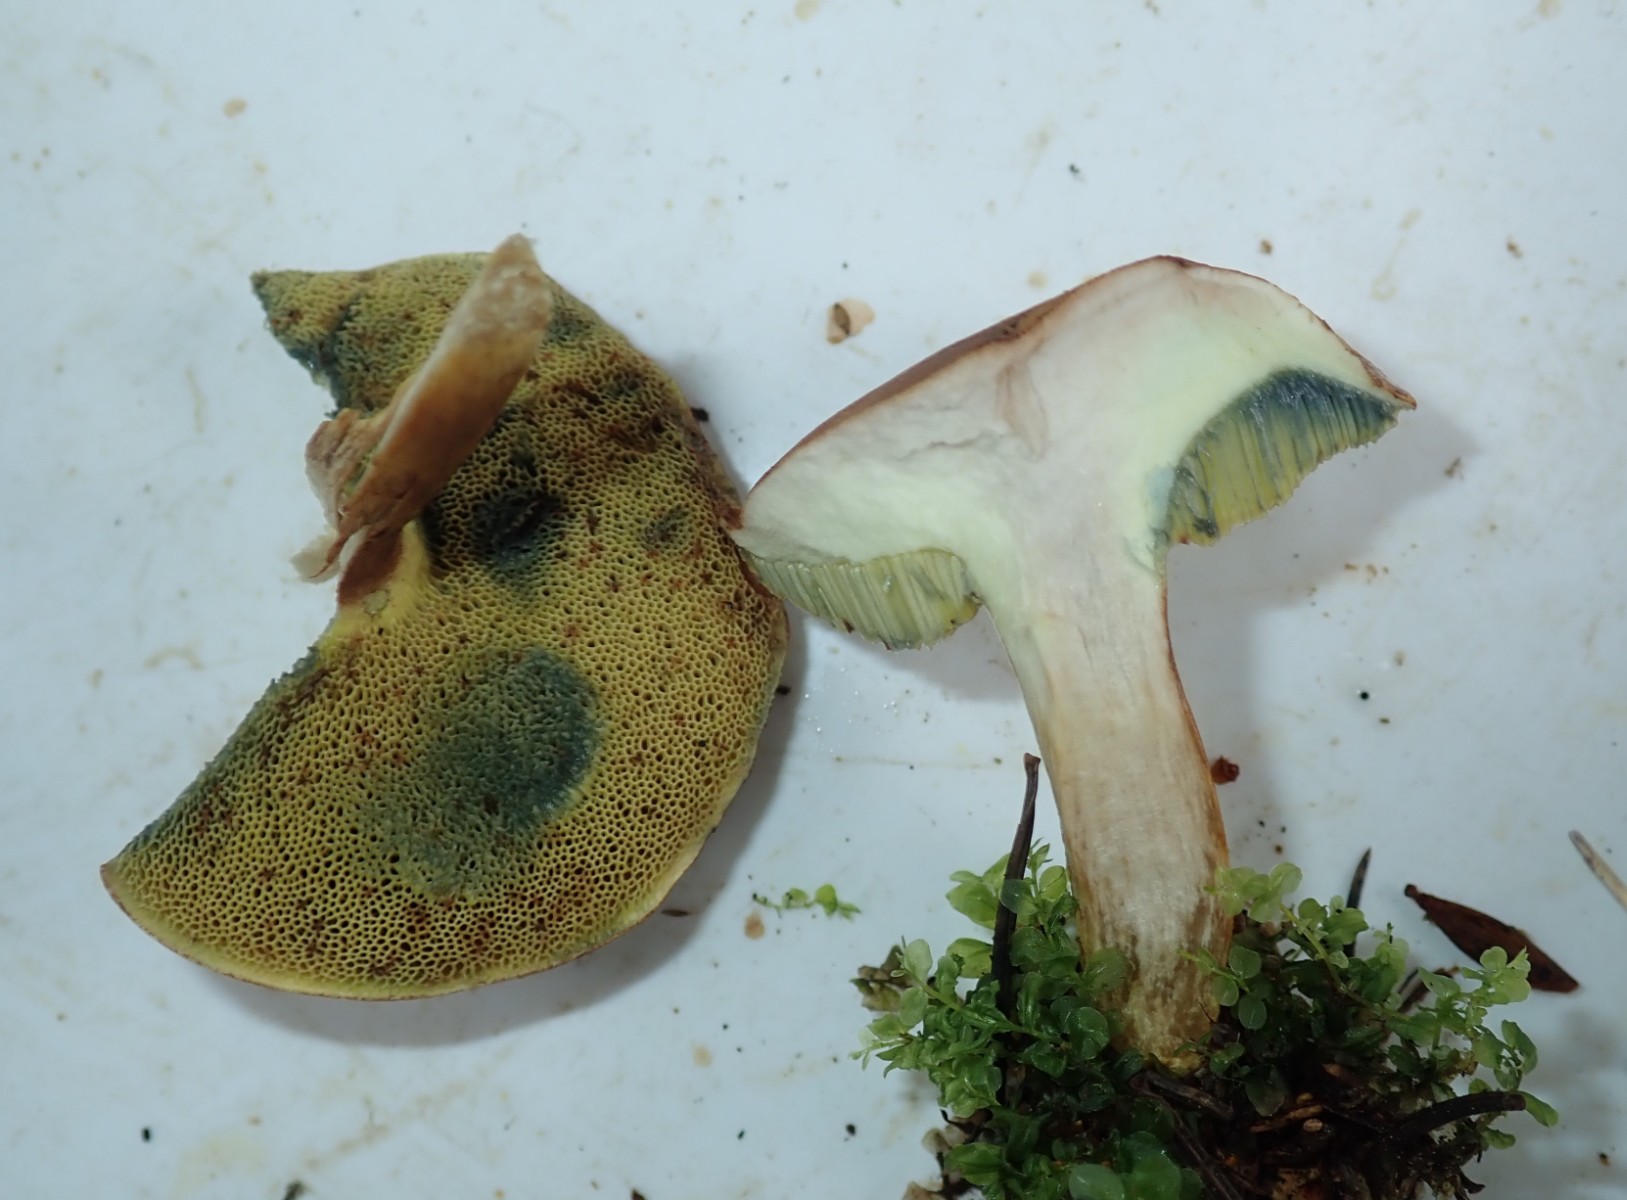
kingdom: Fungi
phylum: Basidiomycota
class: Agaricomycetes
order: Boletales
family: Boletaceae
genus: Imleria
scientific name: Imleria badia
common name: brunstokket rørhat
